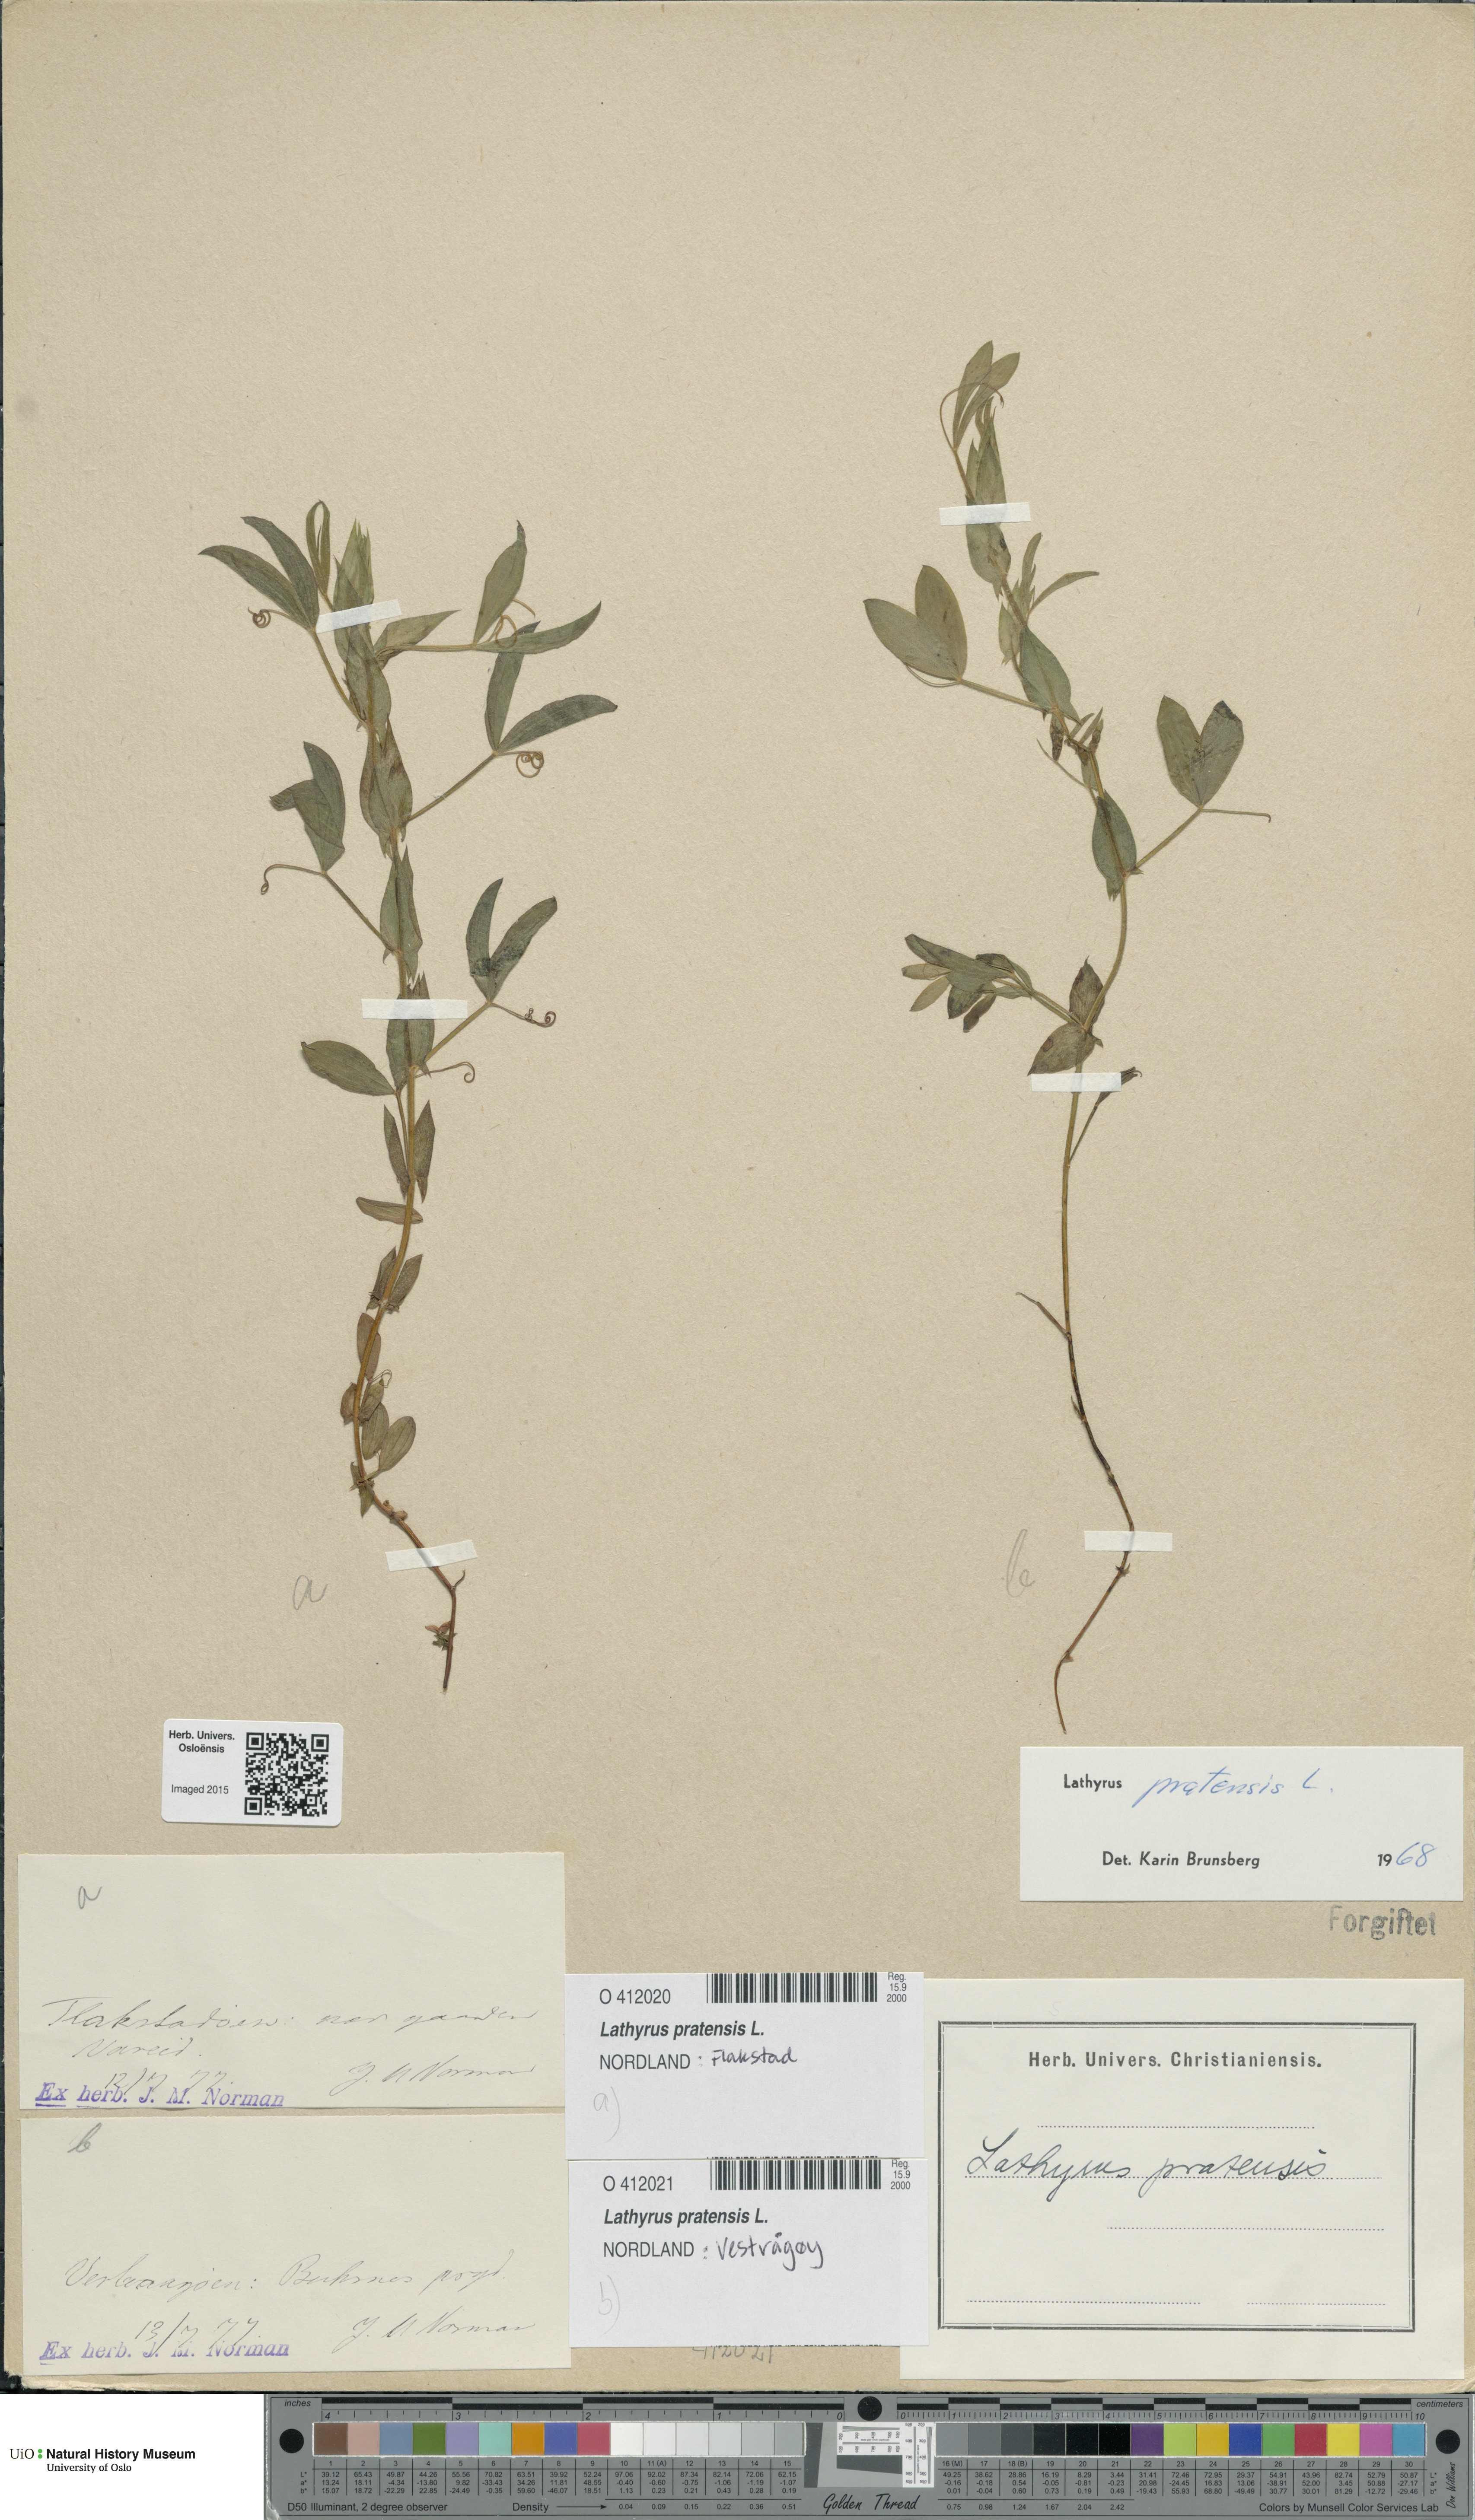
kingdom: Plantae
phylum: Tracheophyta
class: Magnoliopsida
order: Fabales
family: Fabaceae
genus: Lathyrus
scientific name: Lathyrus pratensis
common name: Meadow vetchling
